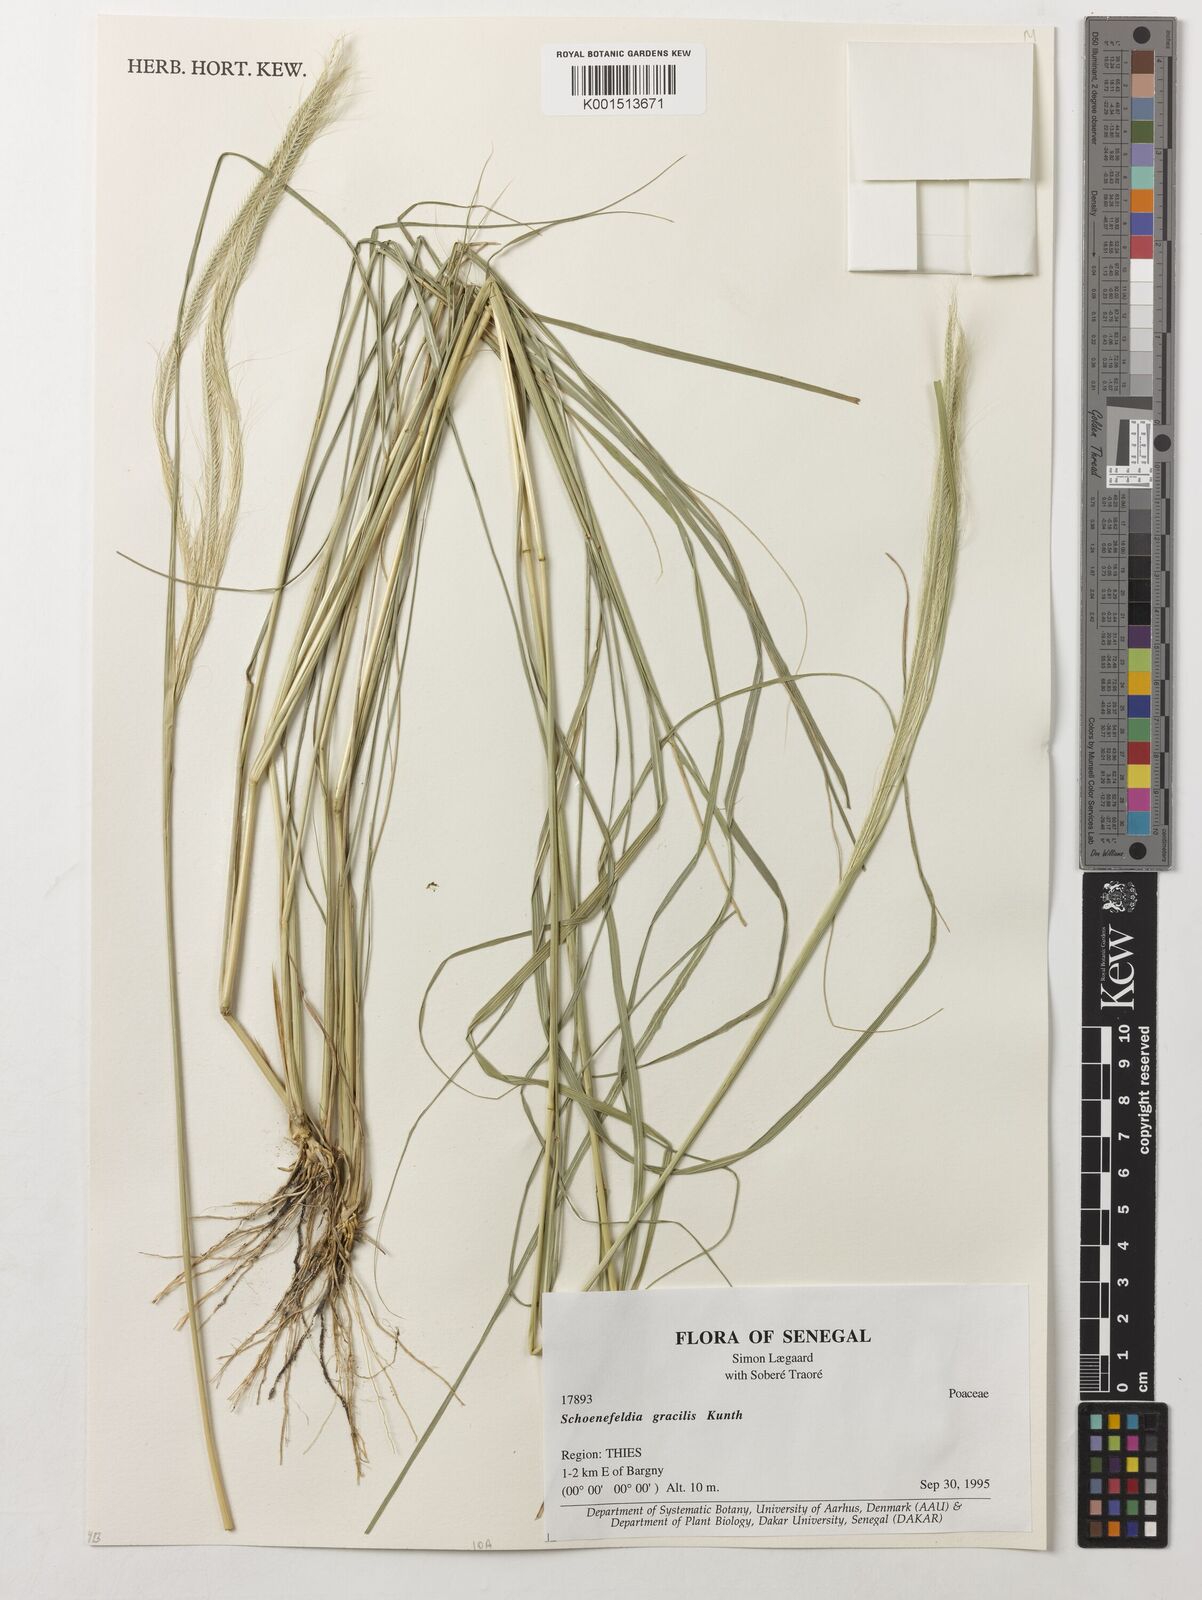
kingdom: Plantae
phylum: Tracheophyta
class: Liliopsida
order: Poales
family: Poaceae
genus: Schoenefeldia
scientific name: Schoenefeldia gracilis
